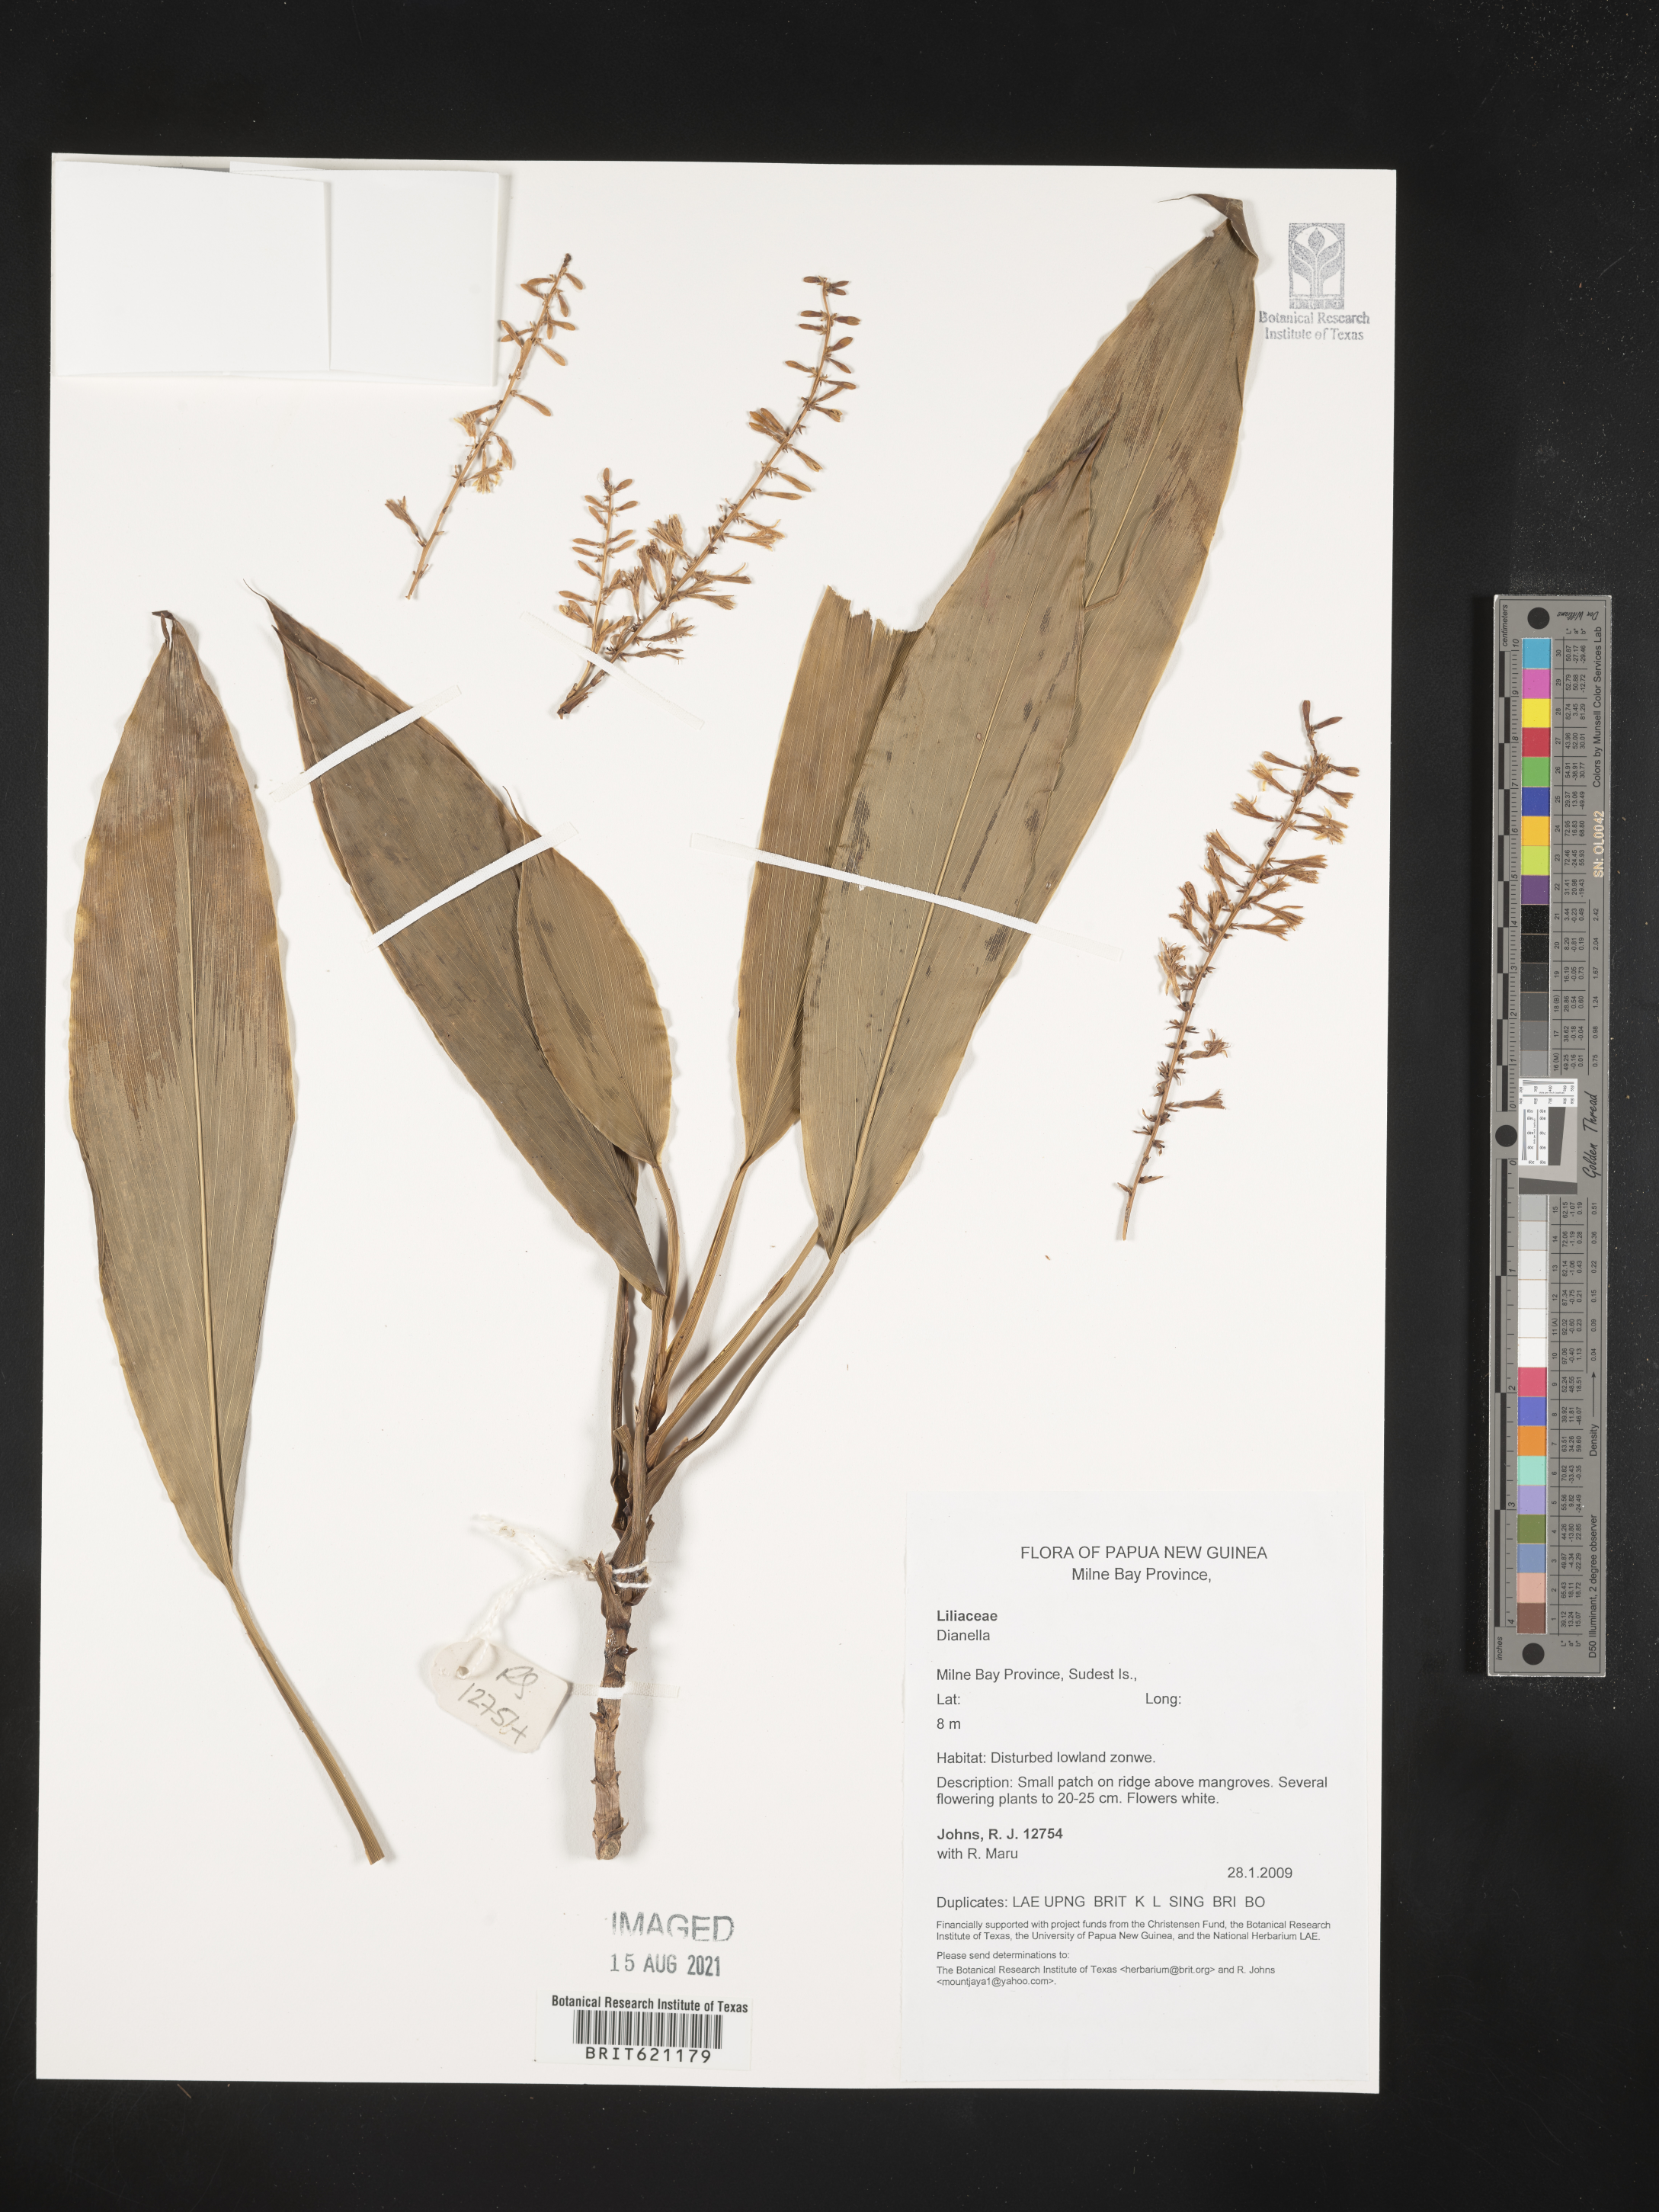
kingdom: Plantae
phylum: Tracheophyta
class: Liliopsida
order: Asparagales
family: Asphodelaceae
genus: Dianella
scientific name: Dianella
